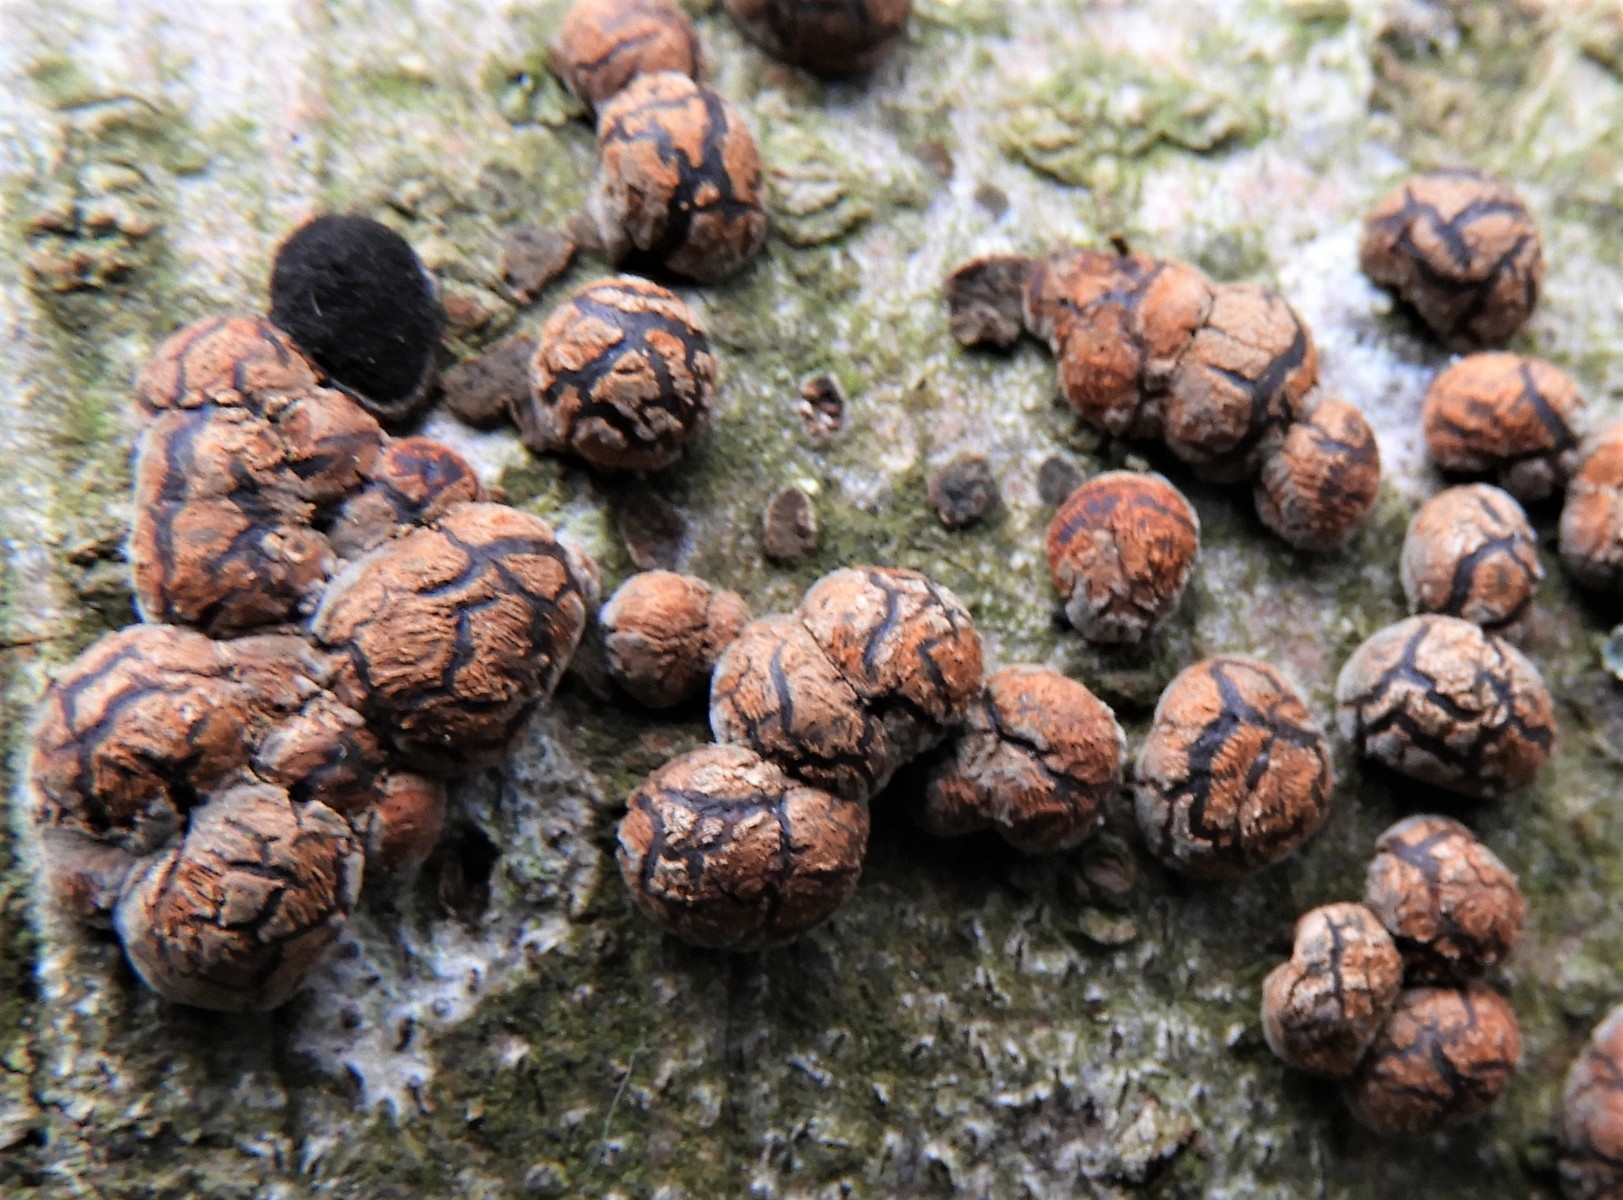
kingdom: Fungi
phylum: Ascomycota
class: Sordariomycetes
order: Xylariales
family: Hypoxylaceae
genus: Hypoxylon
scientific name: Hypoxylon fragiforme
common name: kuljordbær
